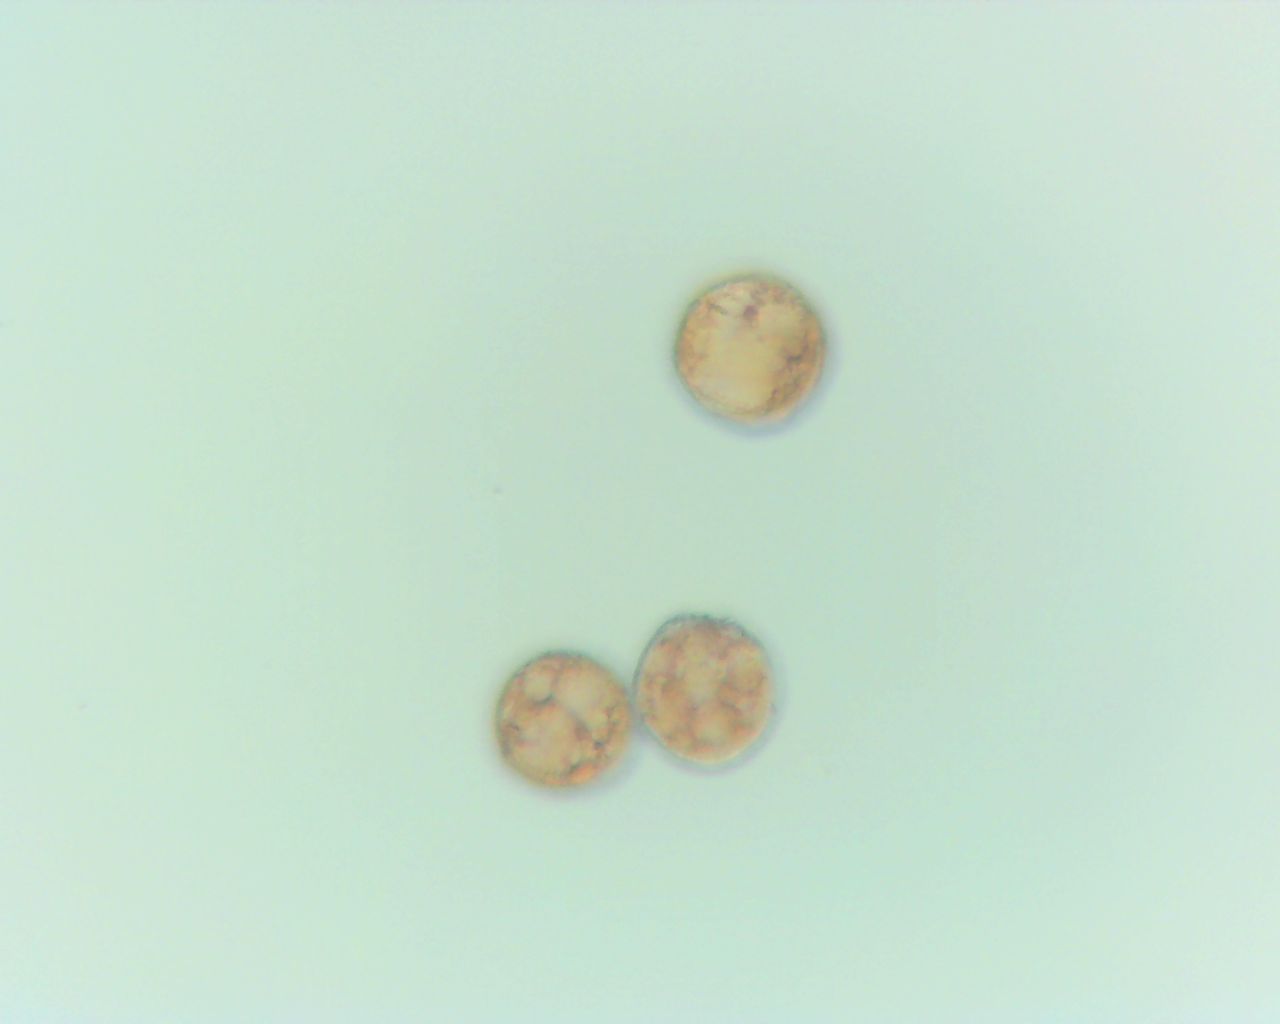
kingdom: Fungi
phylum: Basidiomycota
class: Pucciniomycetes
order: Pucciniales
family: Pucciniaceae
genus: Puccinia
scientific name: Puccinia hysterium
